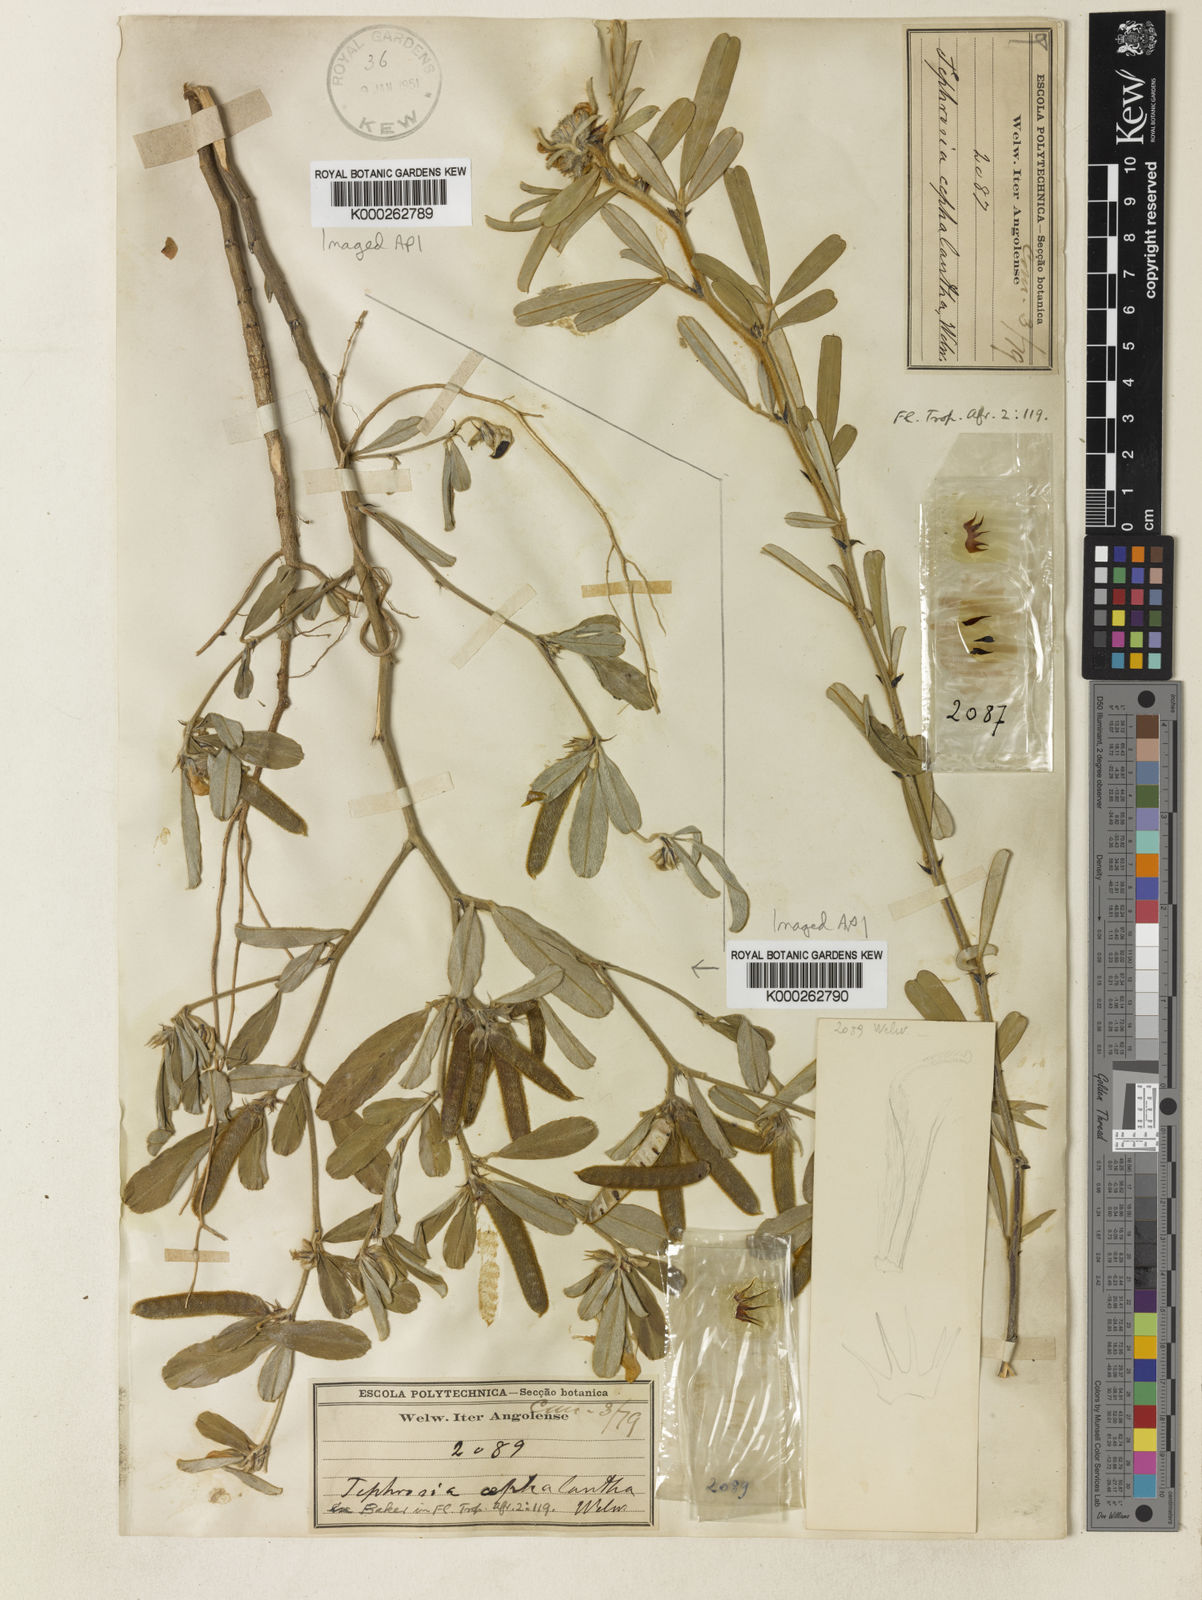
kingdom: Plantae
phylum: Tracheophyta
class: Magnoliopsida
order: Fabales
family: Fabaceae
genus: Tephrosia
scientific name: Tephrosia cephalantha
